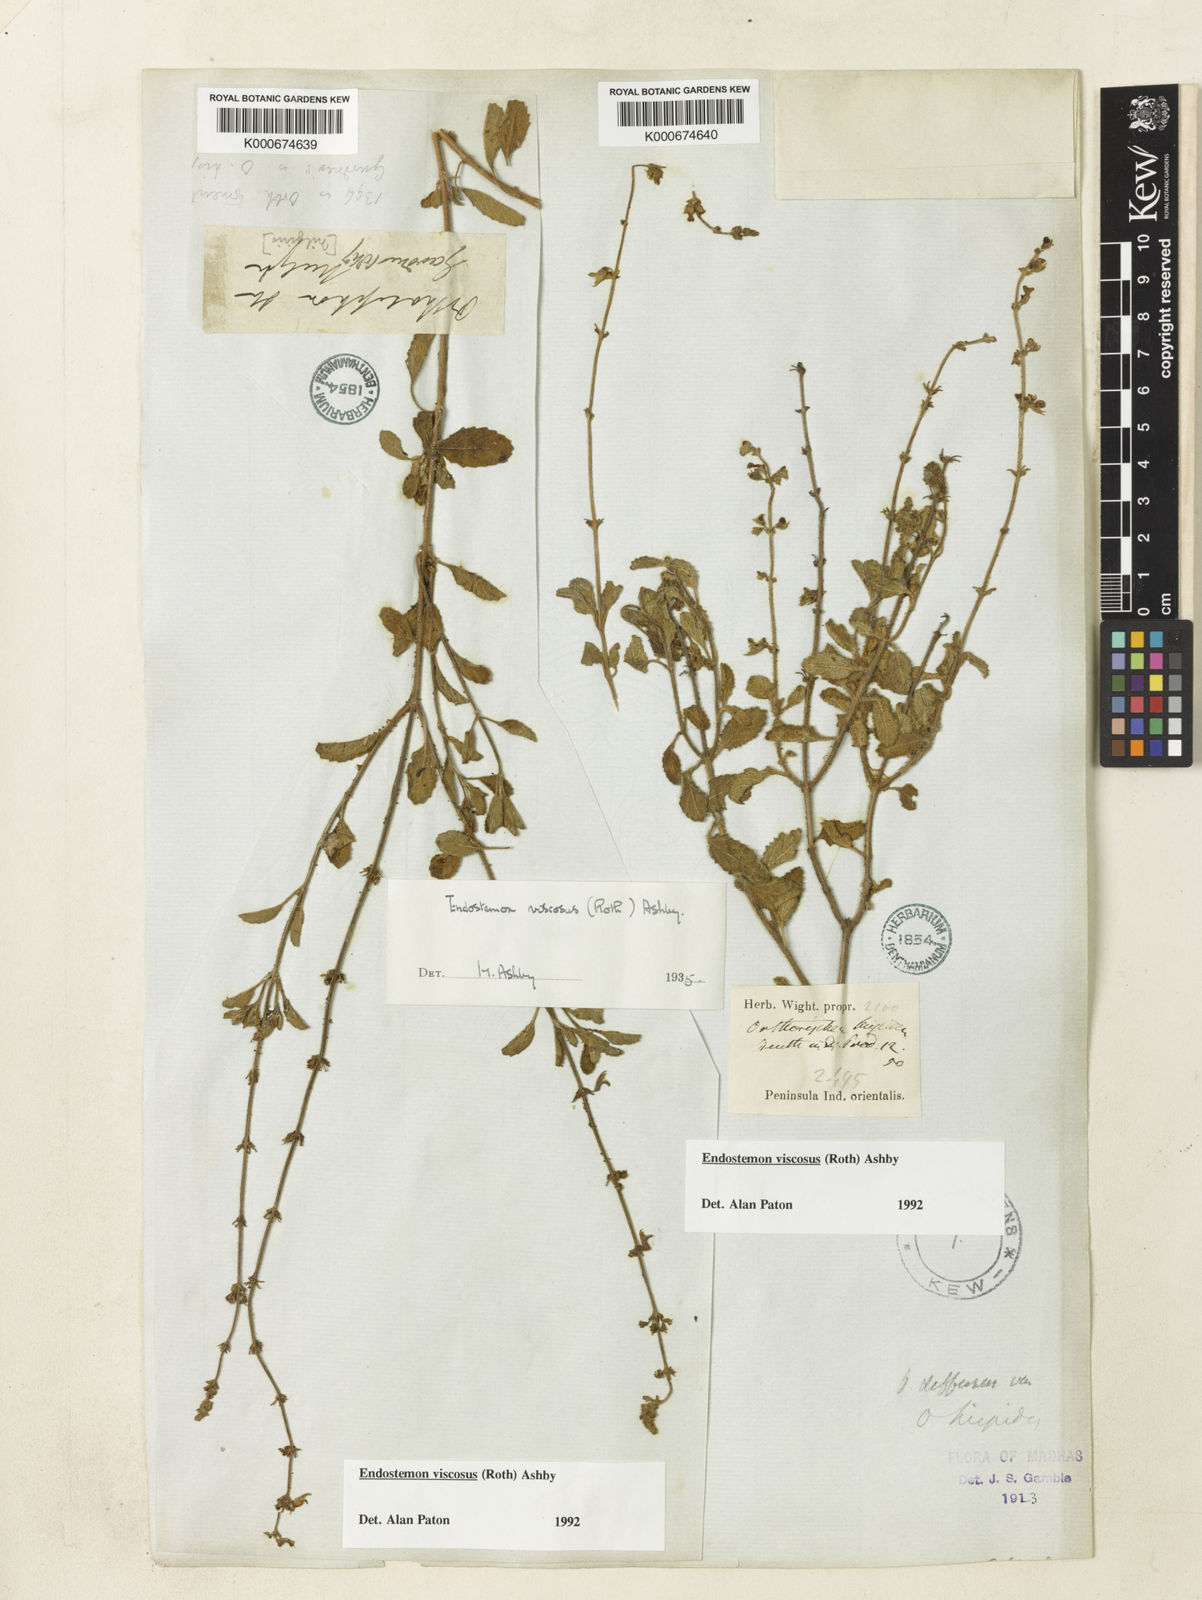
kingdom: Plantae
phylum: Tracheophyta
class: Magnoliopsida
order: Lamiales
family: Lamiaceae
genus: Endostemon
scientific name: Endostemon viscosus
